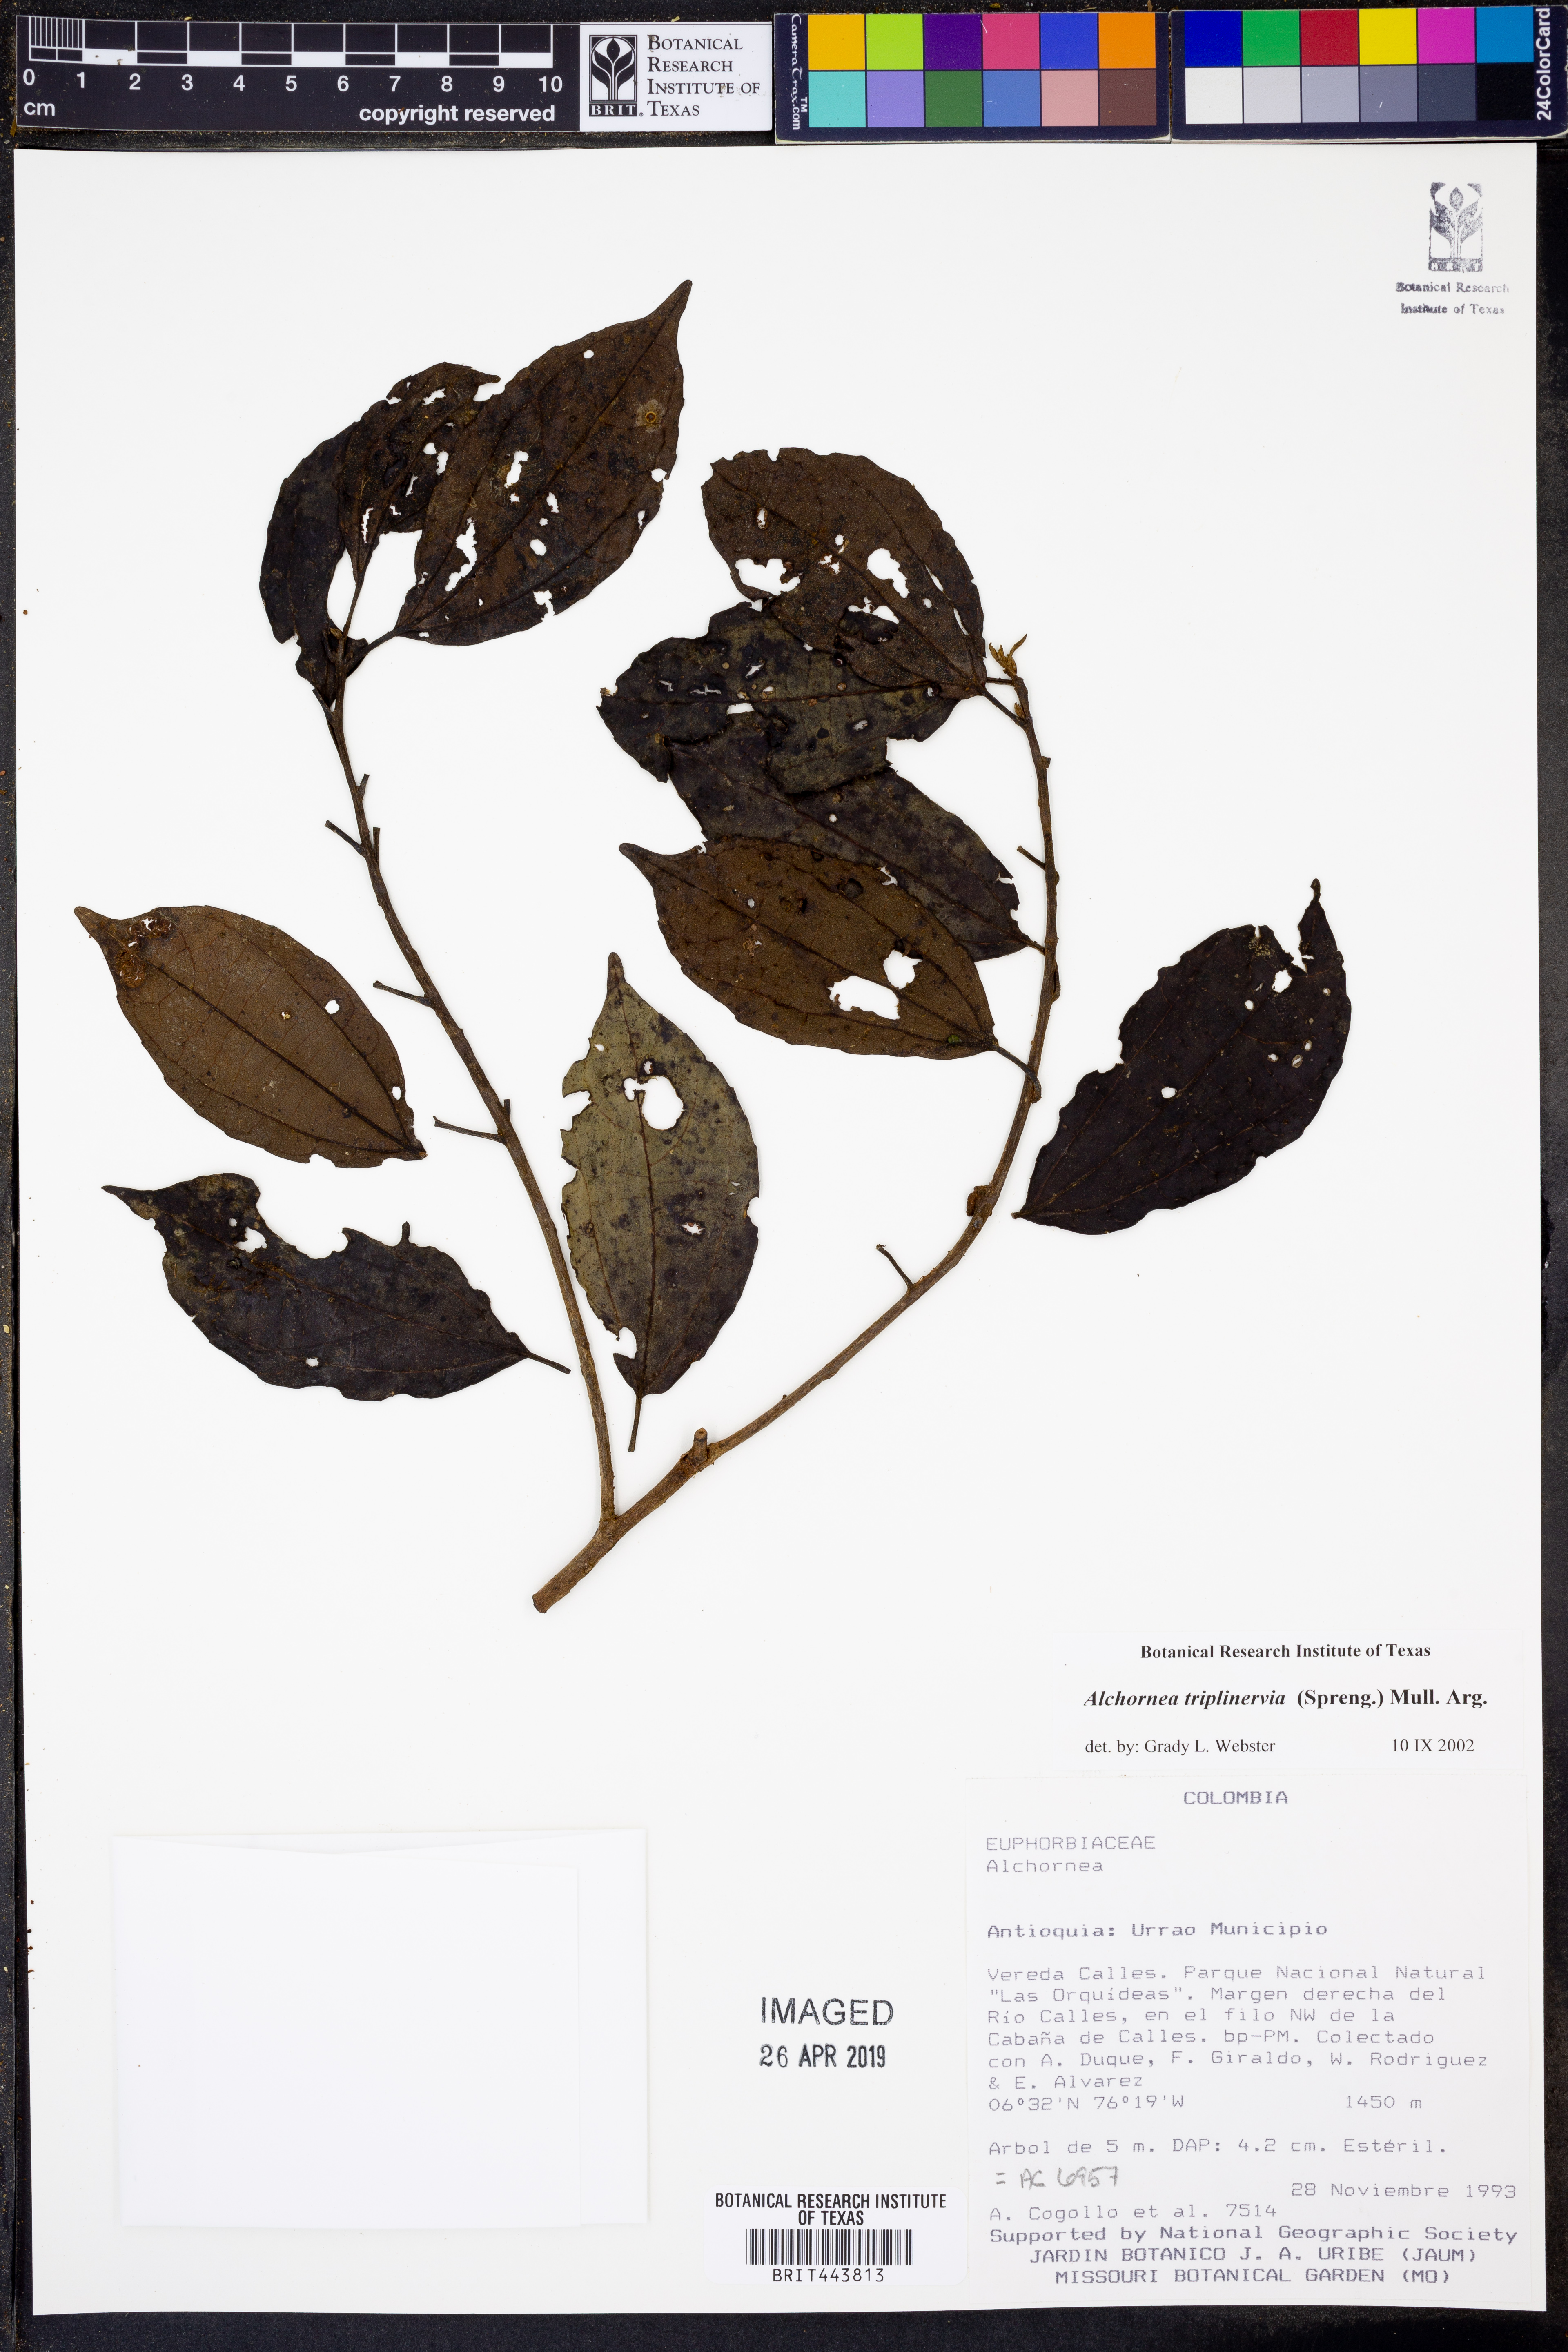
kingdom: Plantae
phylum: Tracheophyta
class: Magnoliopsida
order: Malpighiales
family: Euphorbiaceae
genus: Alchornea
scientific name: Alchornea triplinervia
